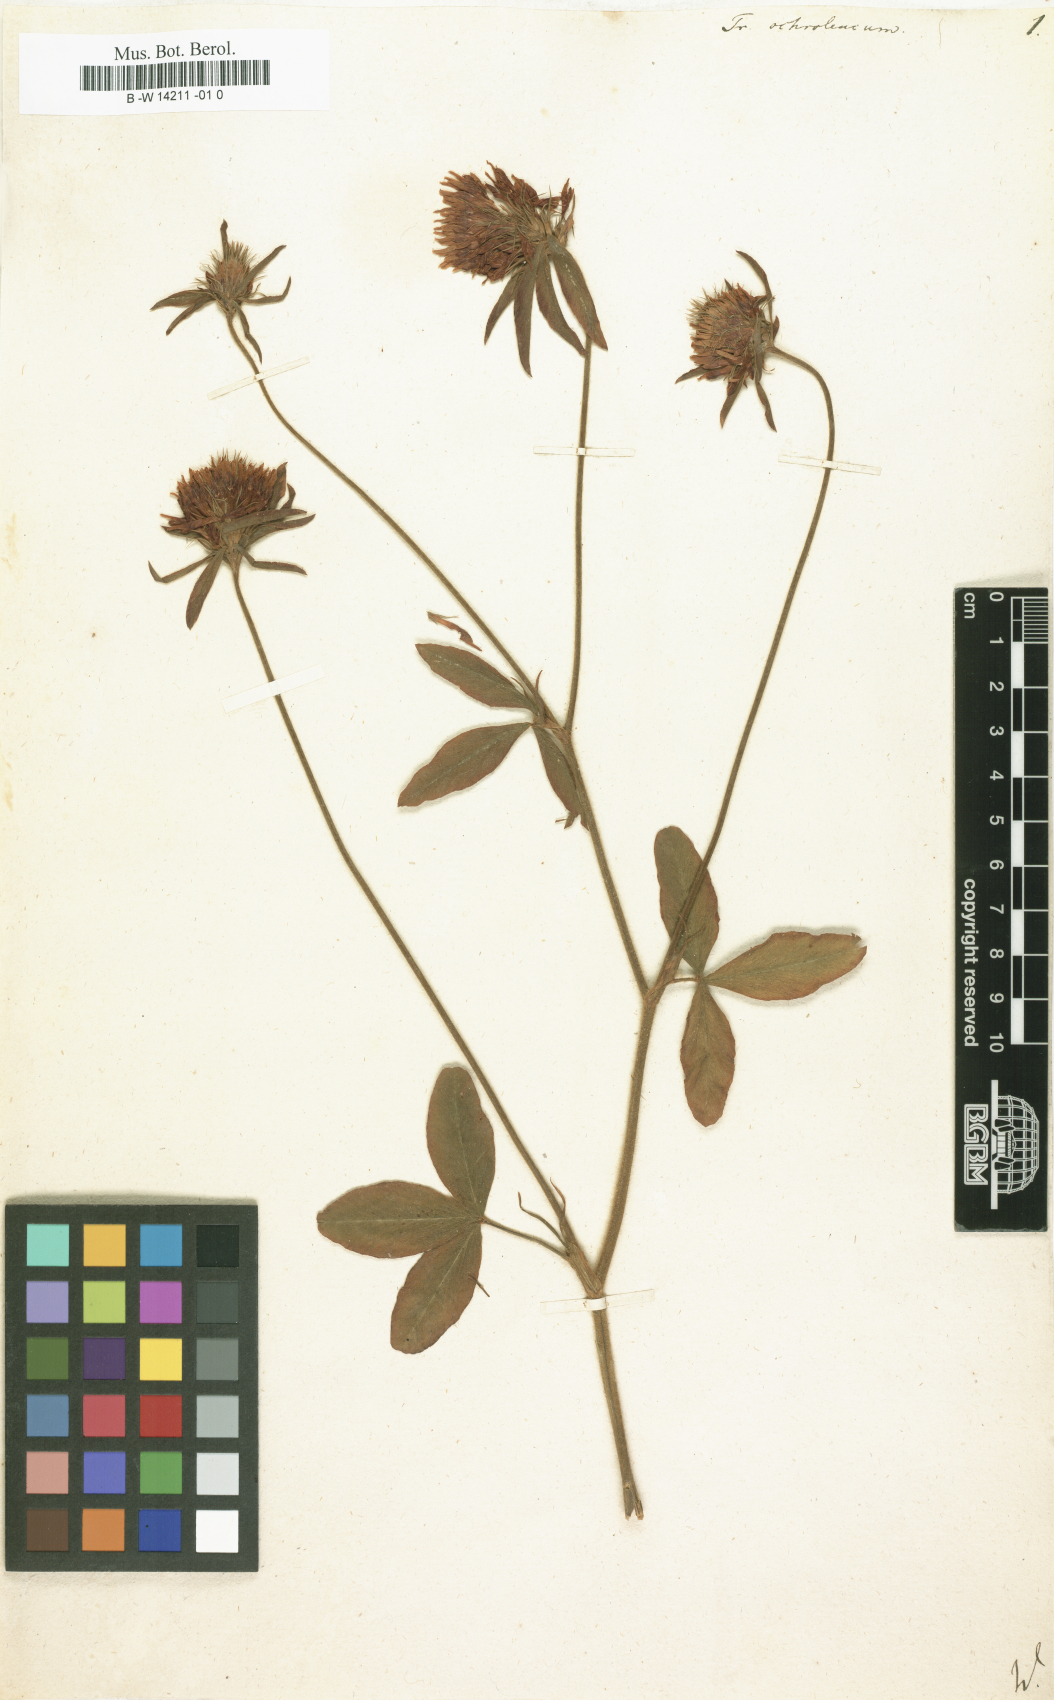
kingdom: Plantae
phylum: Tracheophyta
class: Magnoliopsida
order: Fabales
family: Fabaceae
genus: Trifolium
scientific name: Trifolium
